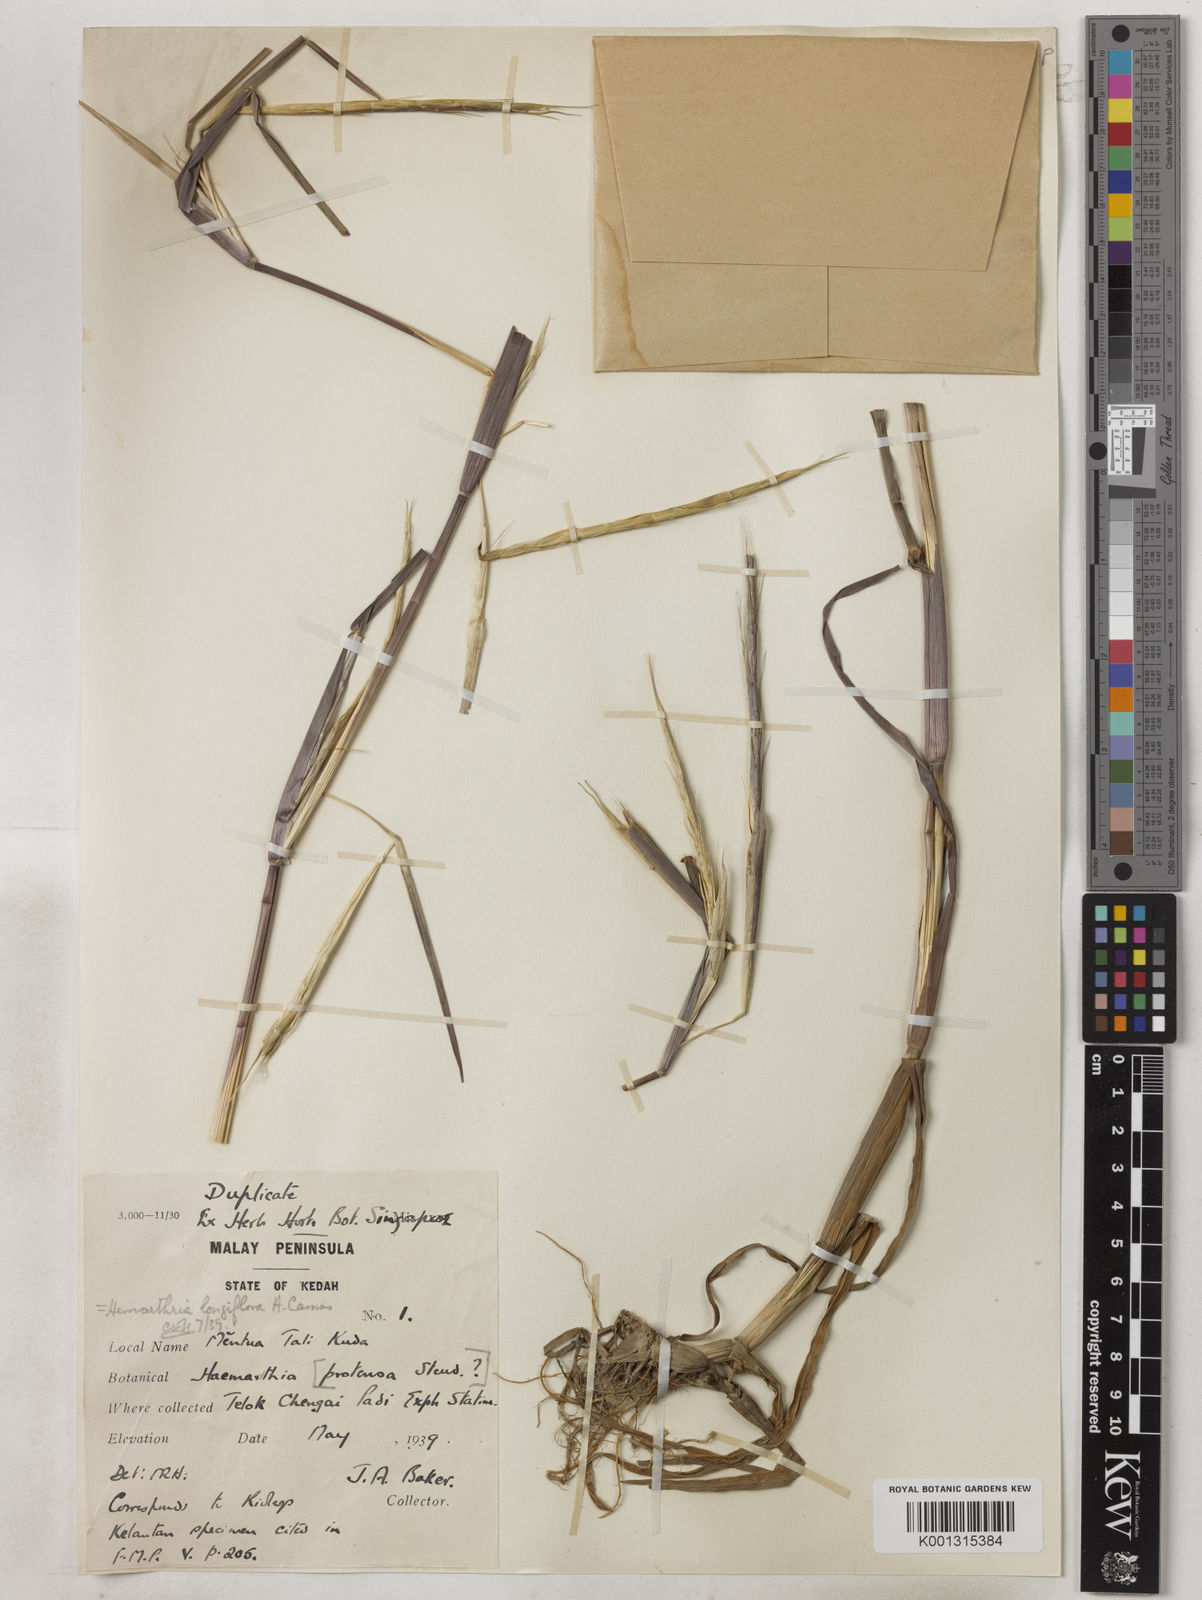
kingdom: Plantae
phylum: Tracheophyta
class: Liliopsida
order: Poales
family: Poaceae
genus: Hemarthria
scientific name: Hemarthria longiflora
